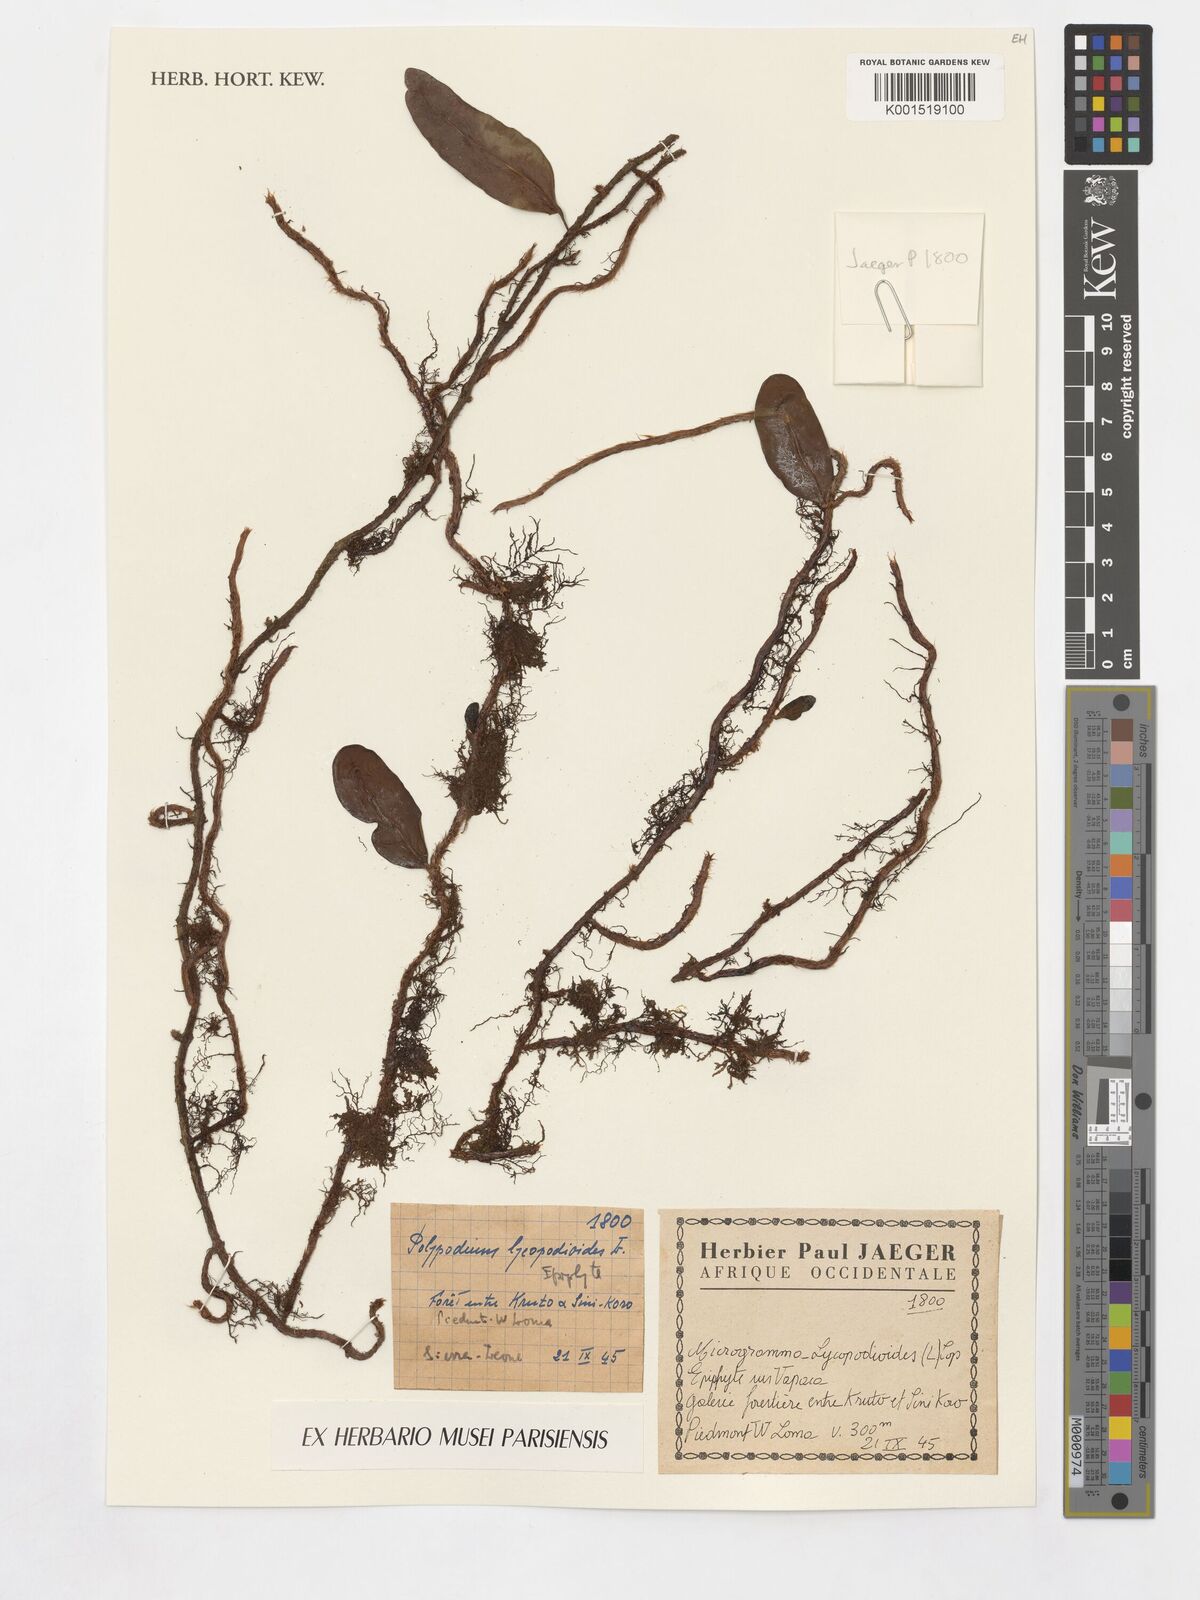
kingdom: Plantae
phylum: Tracheophyta
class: Polypodiopsida
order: Polypodiales
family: Polypodiaceae
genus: Microgramma
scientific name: Microgramma lycopodioides
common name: Bastard catclaw
